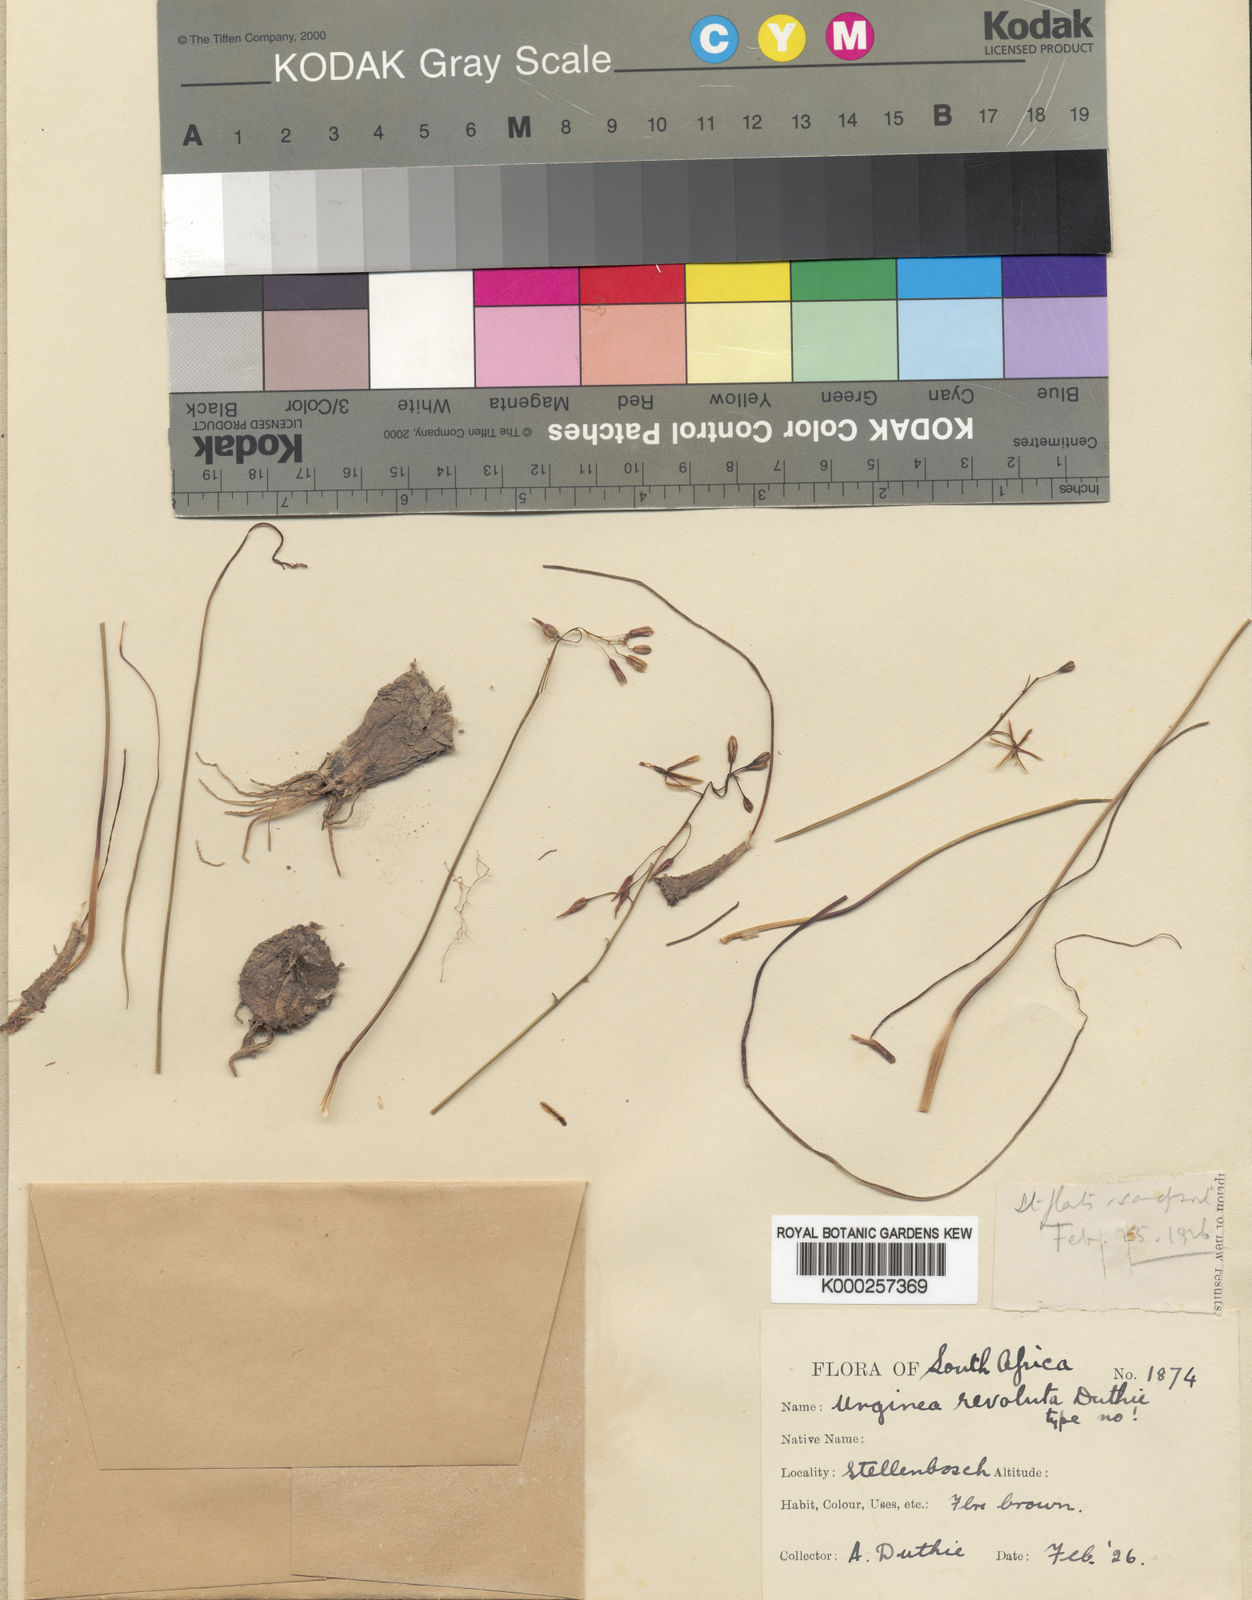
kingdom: Plantae
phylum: Tracheophyta
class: Liliopsida
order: Asparagales
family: Asparagaceae
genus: Drimia
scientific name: Drimia hesperantha
